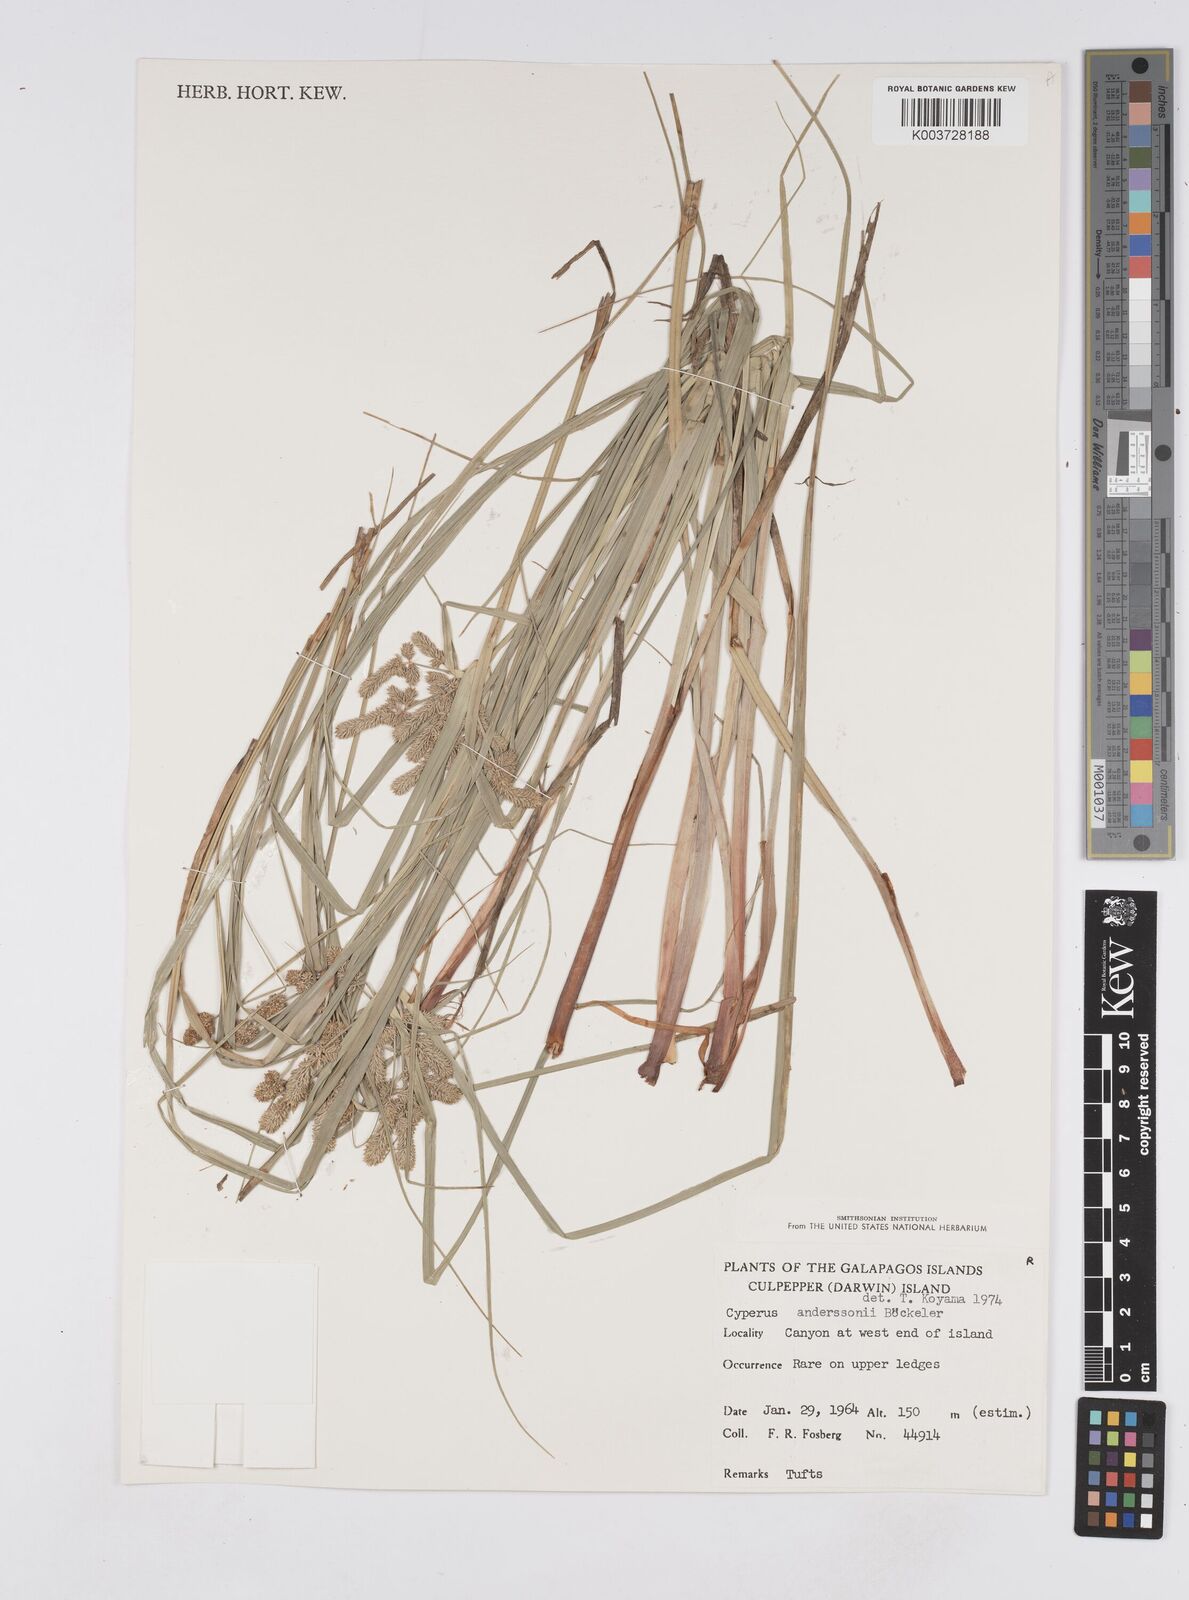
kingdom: Plantae
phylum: Tracheophyta
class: Liliopsida
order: Poales
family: Cyperaceae
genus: Cyperus
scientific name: Cyperus anderssonii
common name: Andersson's sedge
